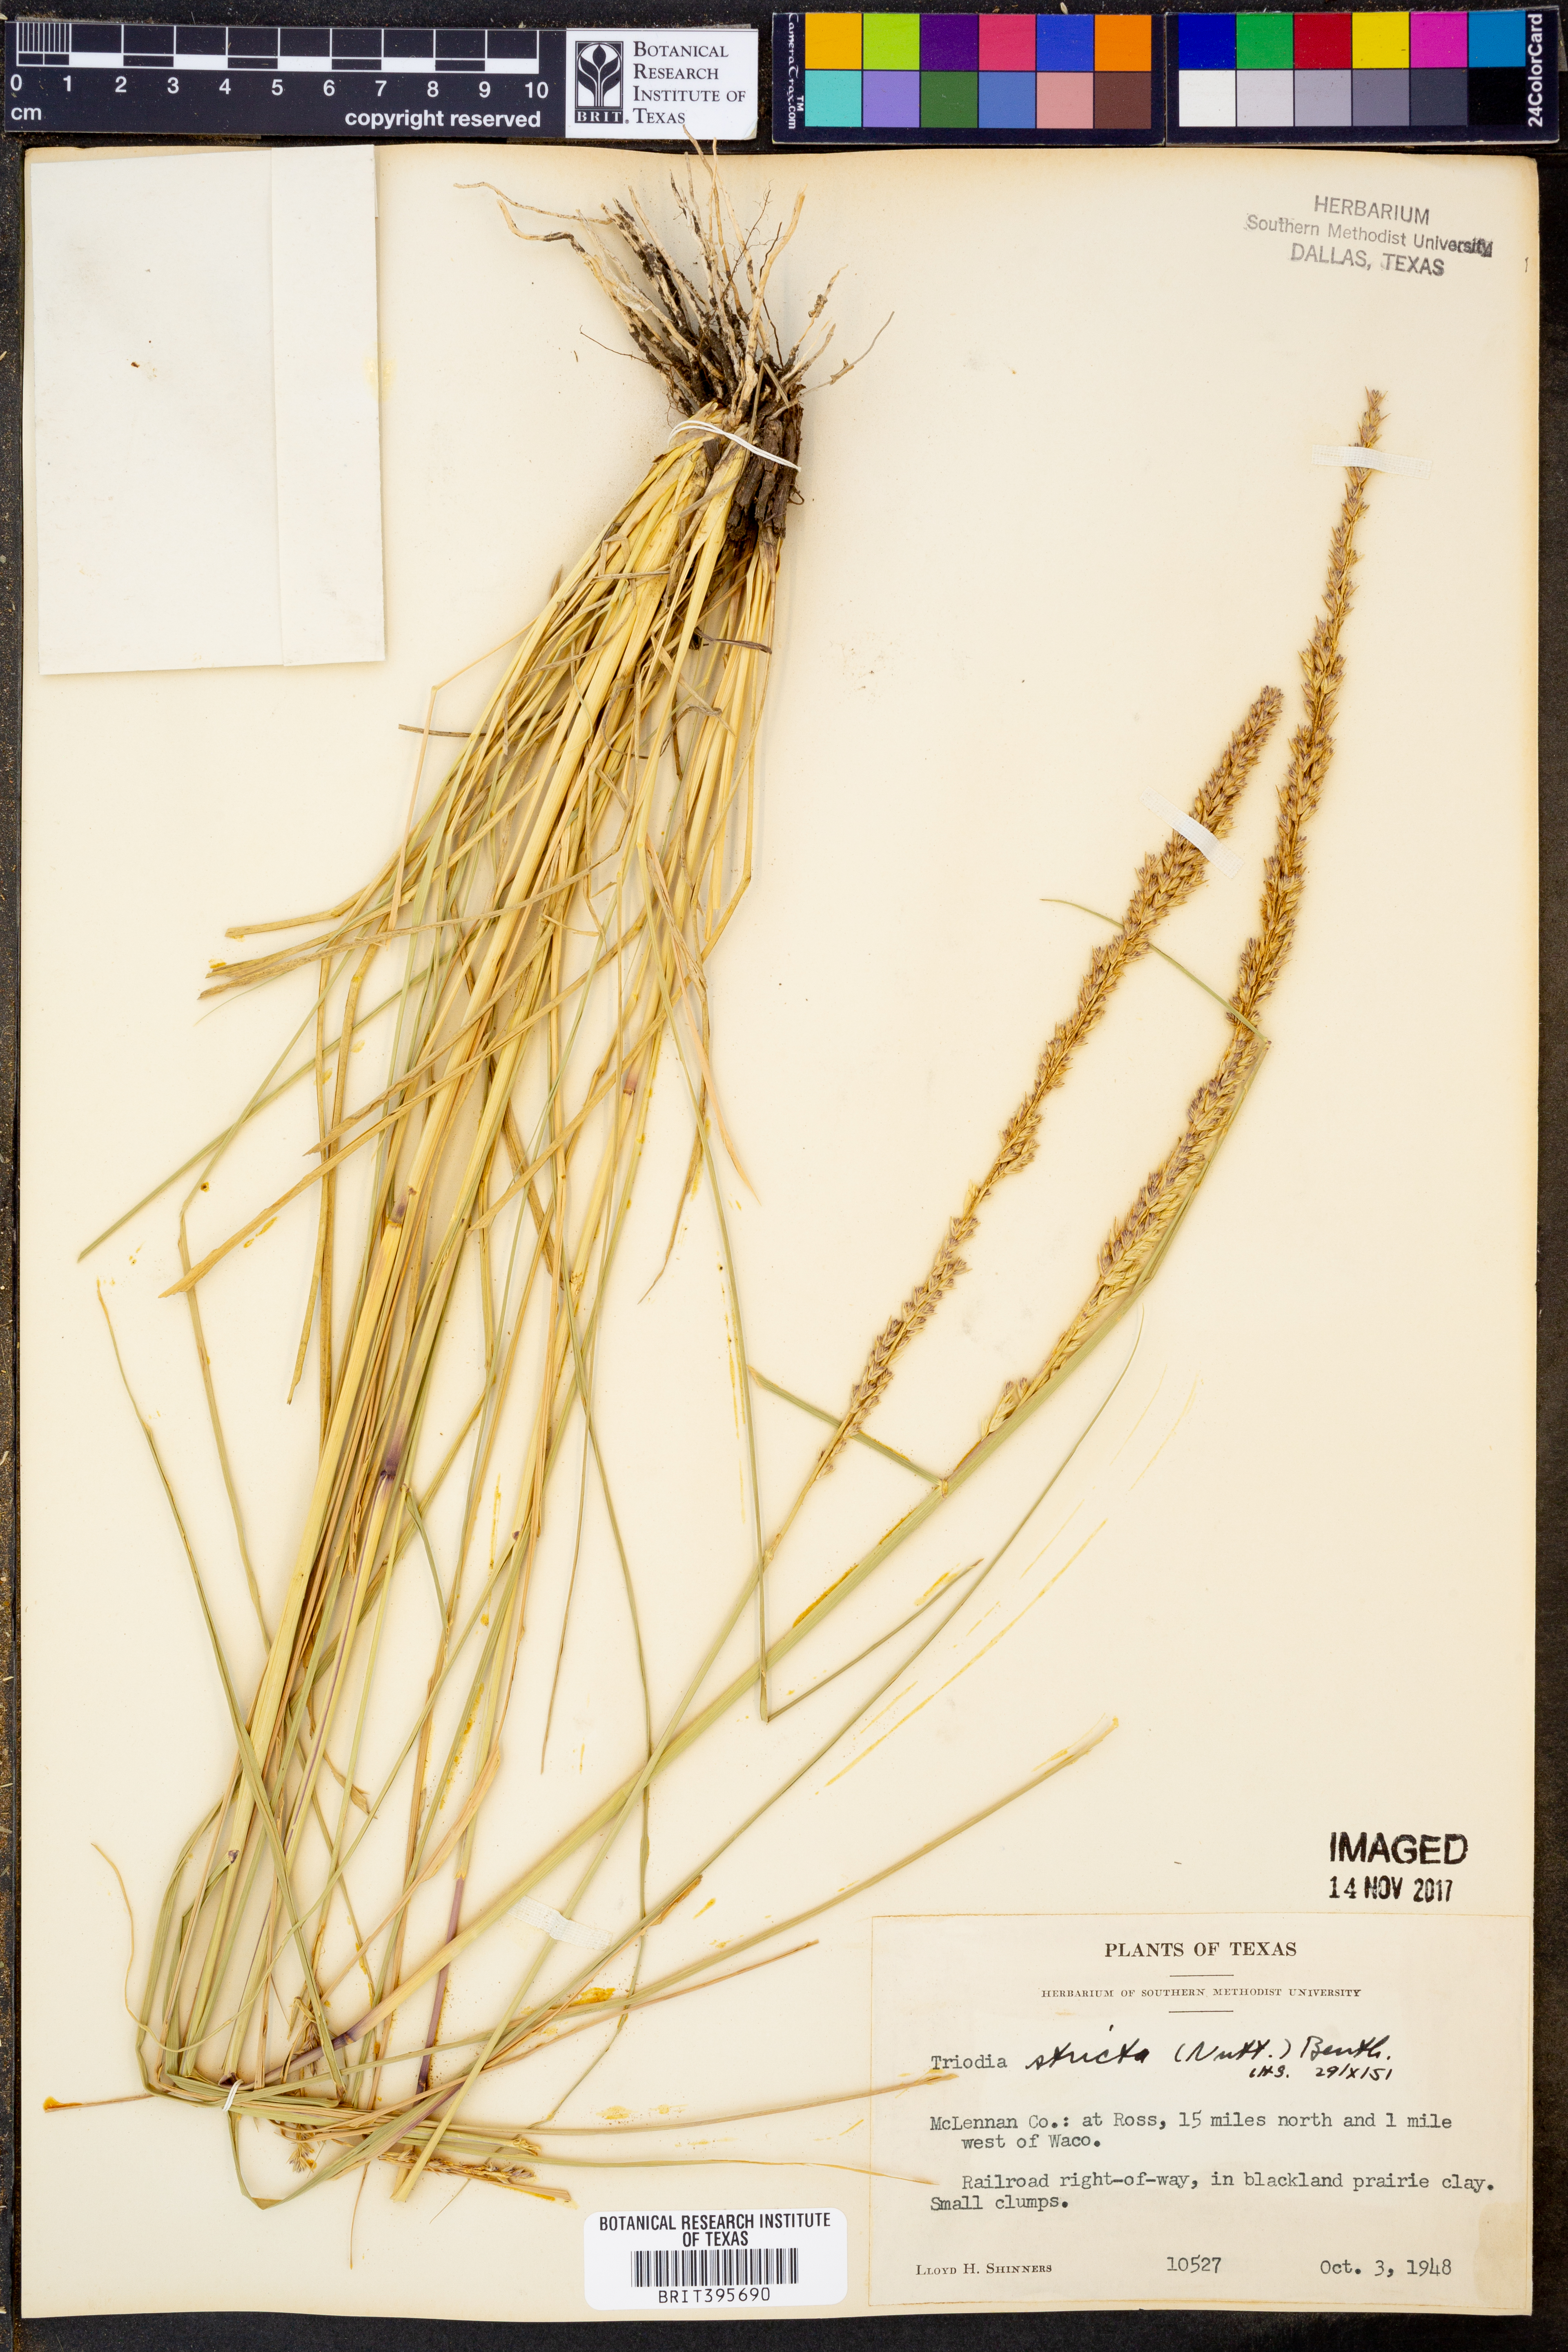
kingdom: Plantae
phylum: Tracheophyta
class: Liliopsida
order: Poales
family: Poaceae
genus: Tridens
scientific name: Tridens strictus
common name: Long-spike tridens
